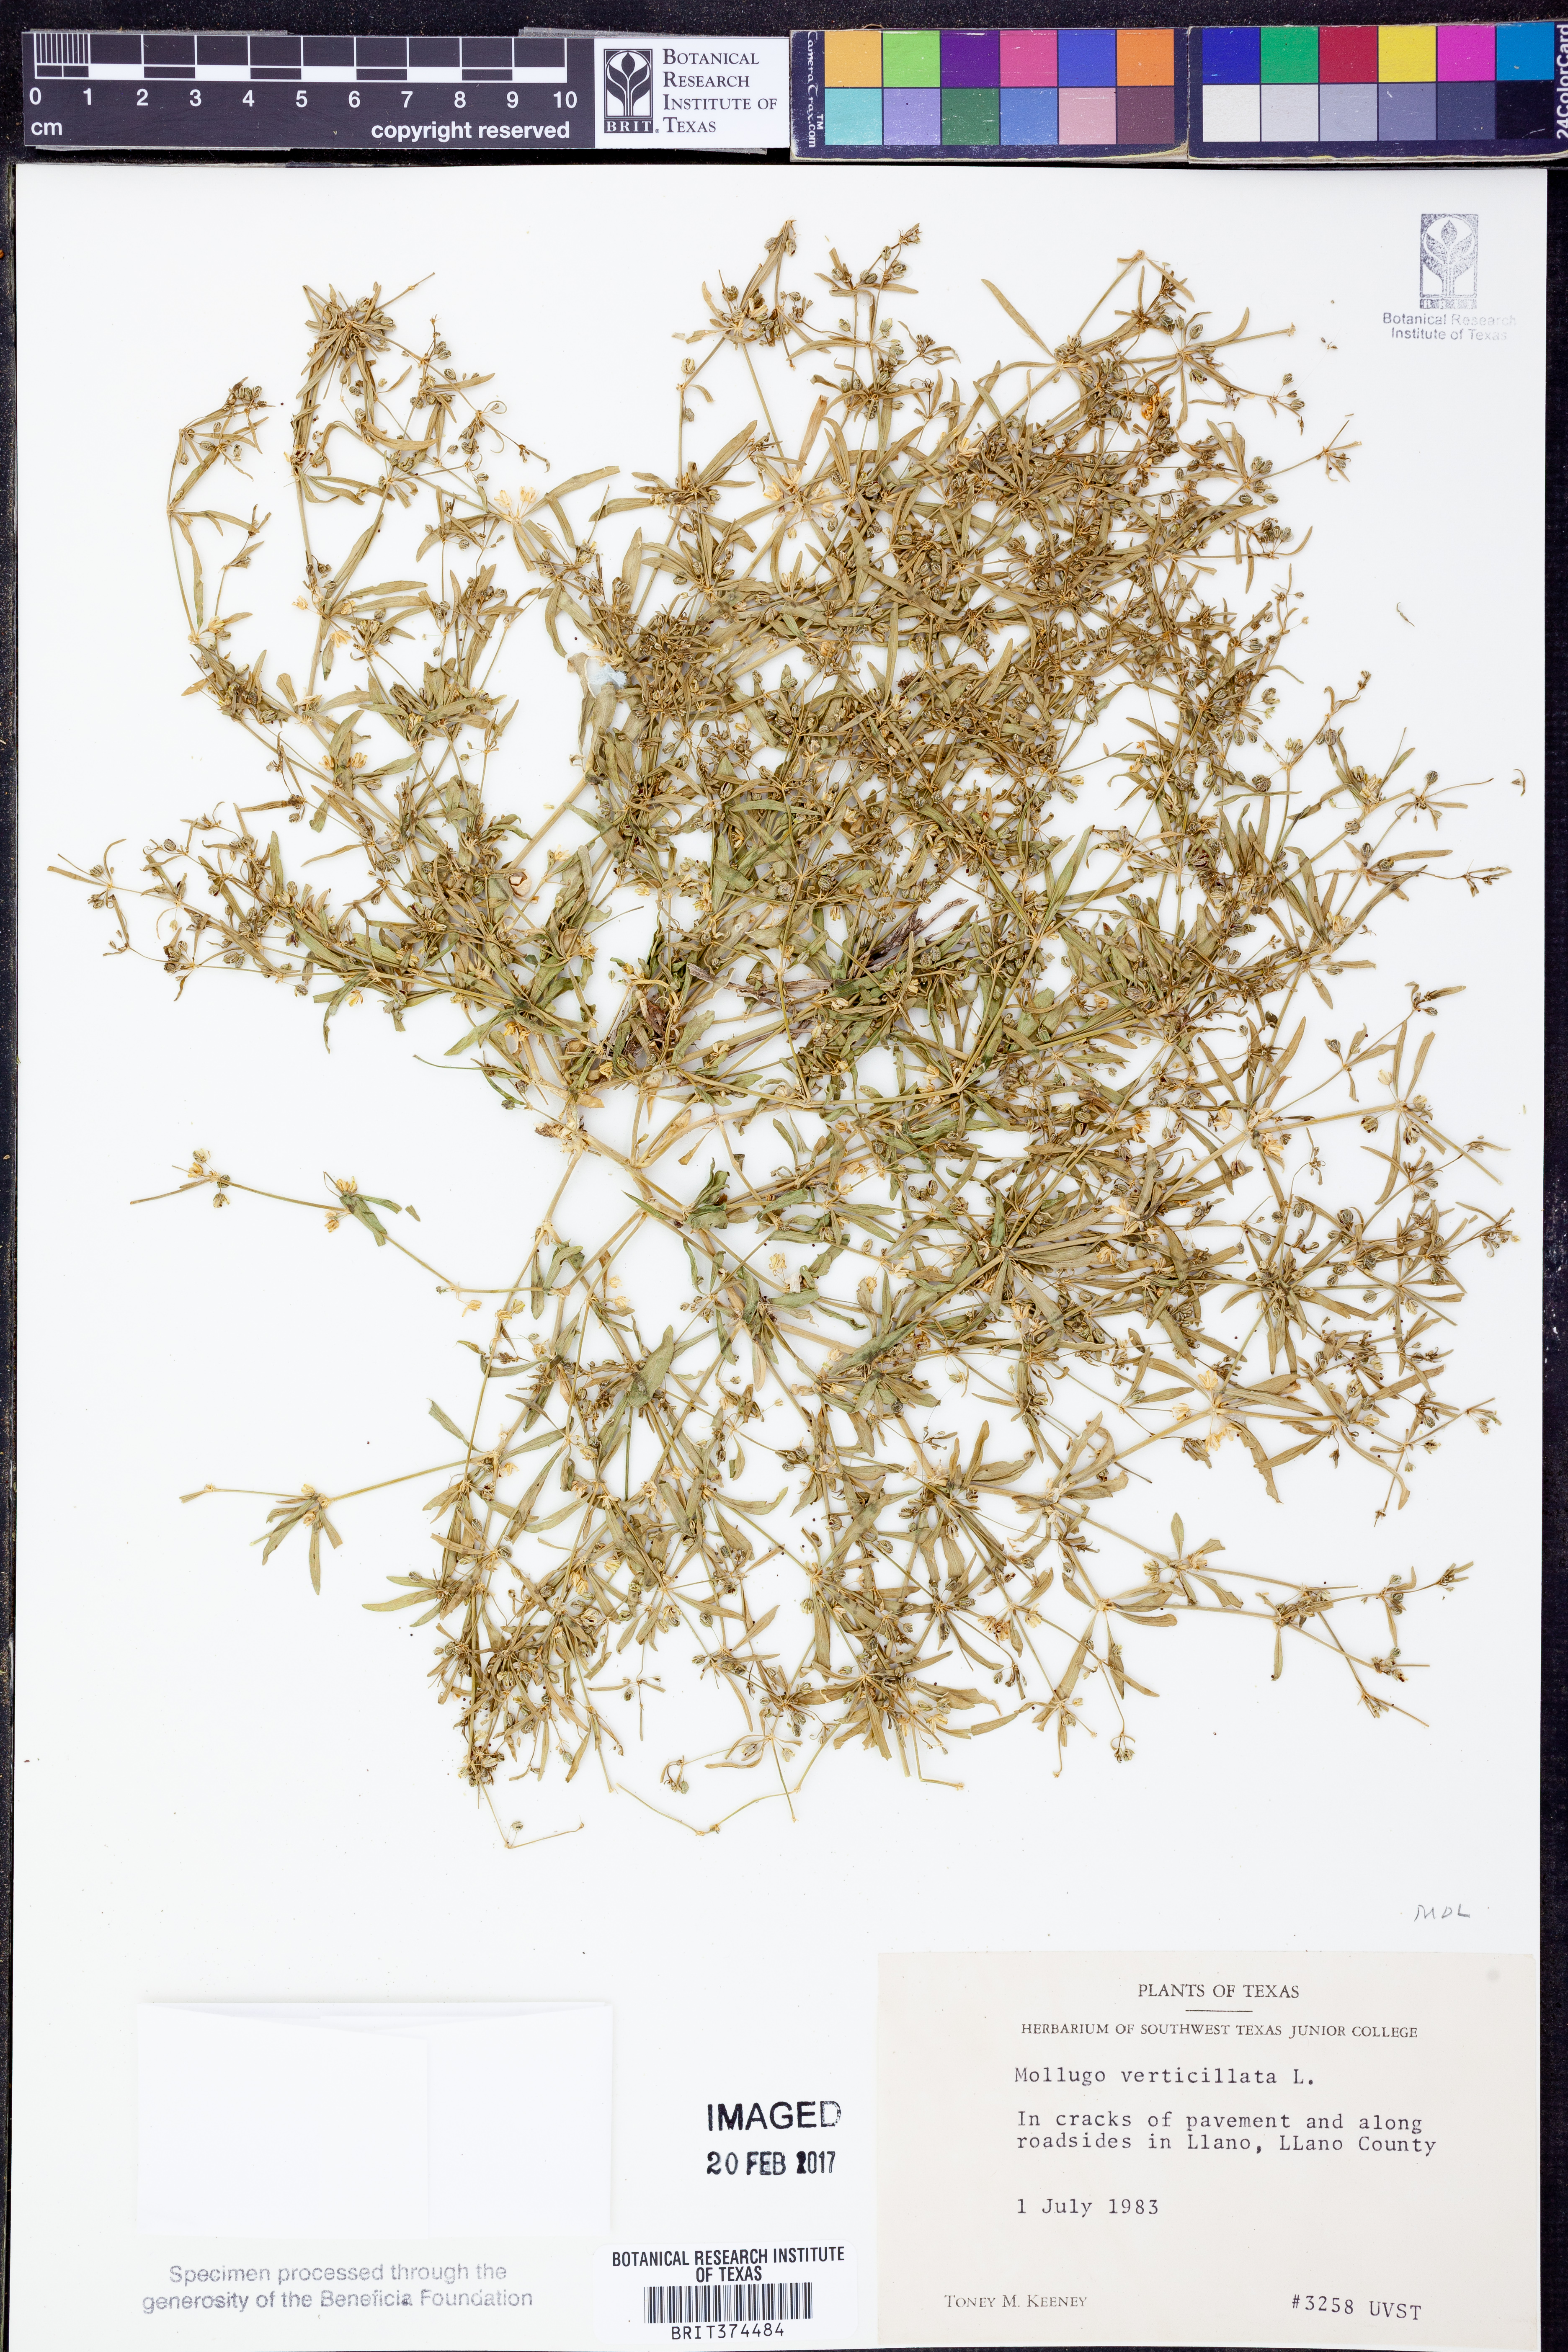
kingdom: Plantae
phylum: Tracheophyta
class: Magnoliopsida
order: Caryophyllales
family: Molluginaceae
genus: Mollugo
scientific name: Mollugo verticillata
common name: Green carpetweed
